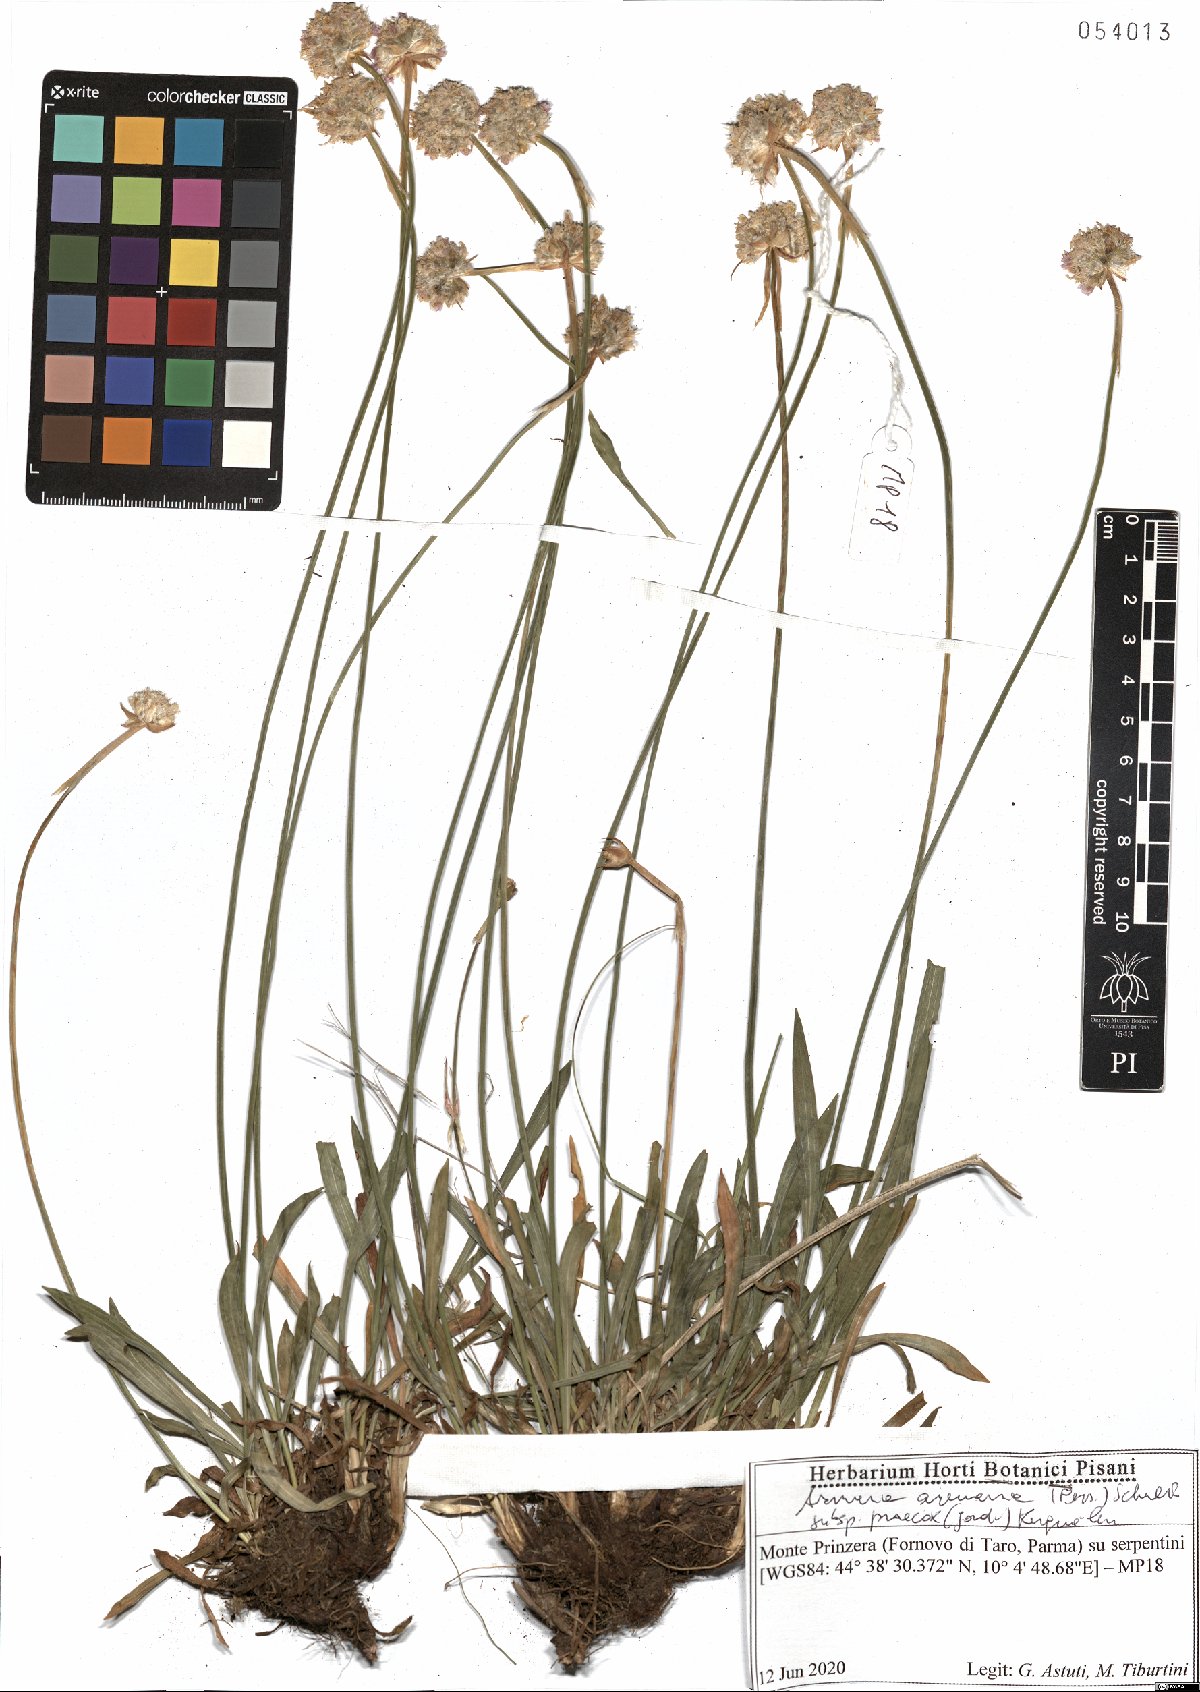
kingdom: Plantae
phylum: Tracheophyta
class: Magnoliopsida
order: Caryophyllales
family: Plumbaginaceae
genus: Armeria
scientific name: Armeria arenaria
